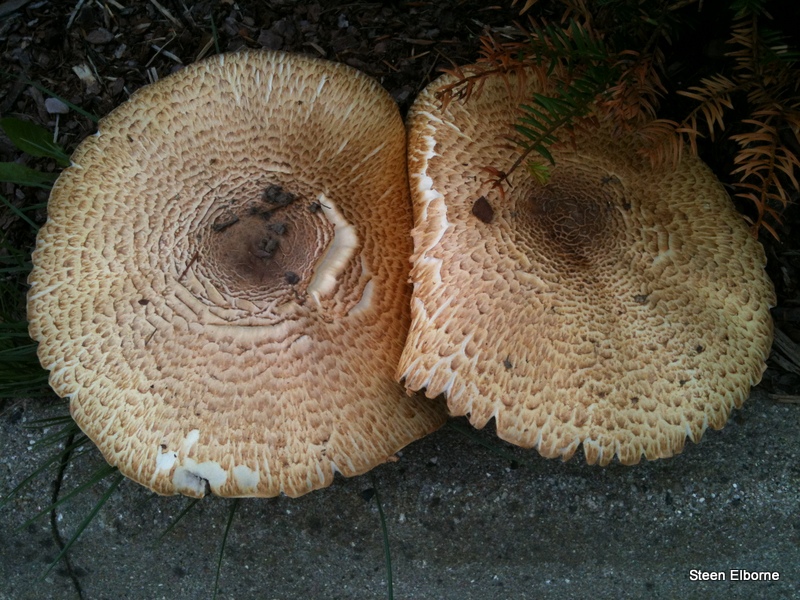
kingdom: Fungi
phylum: Basidiomycota
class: Agaricomycetes
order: Agaricales
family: Agaricaceae
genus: Agaricus
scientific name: Agaricus augustus
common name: prægtig champignon
